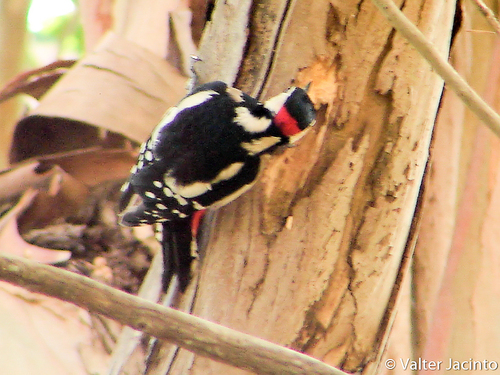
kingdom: Animalia
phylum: Chordata
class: Aves
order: Piciformes
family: Picidae
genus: Dendrocopos
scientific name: Dendrocopos major
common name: Great spotted woodpecker
